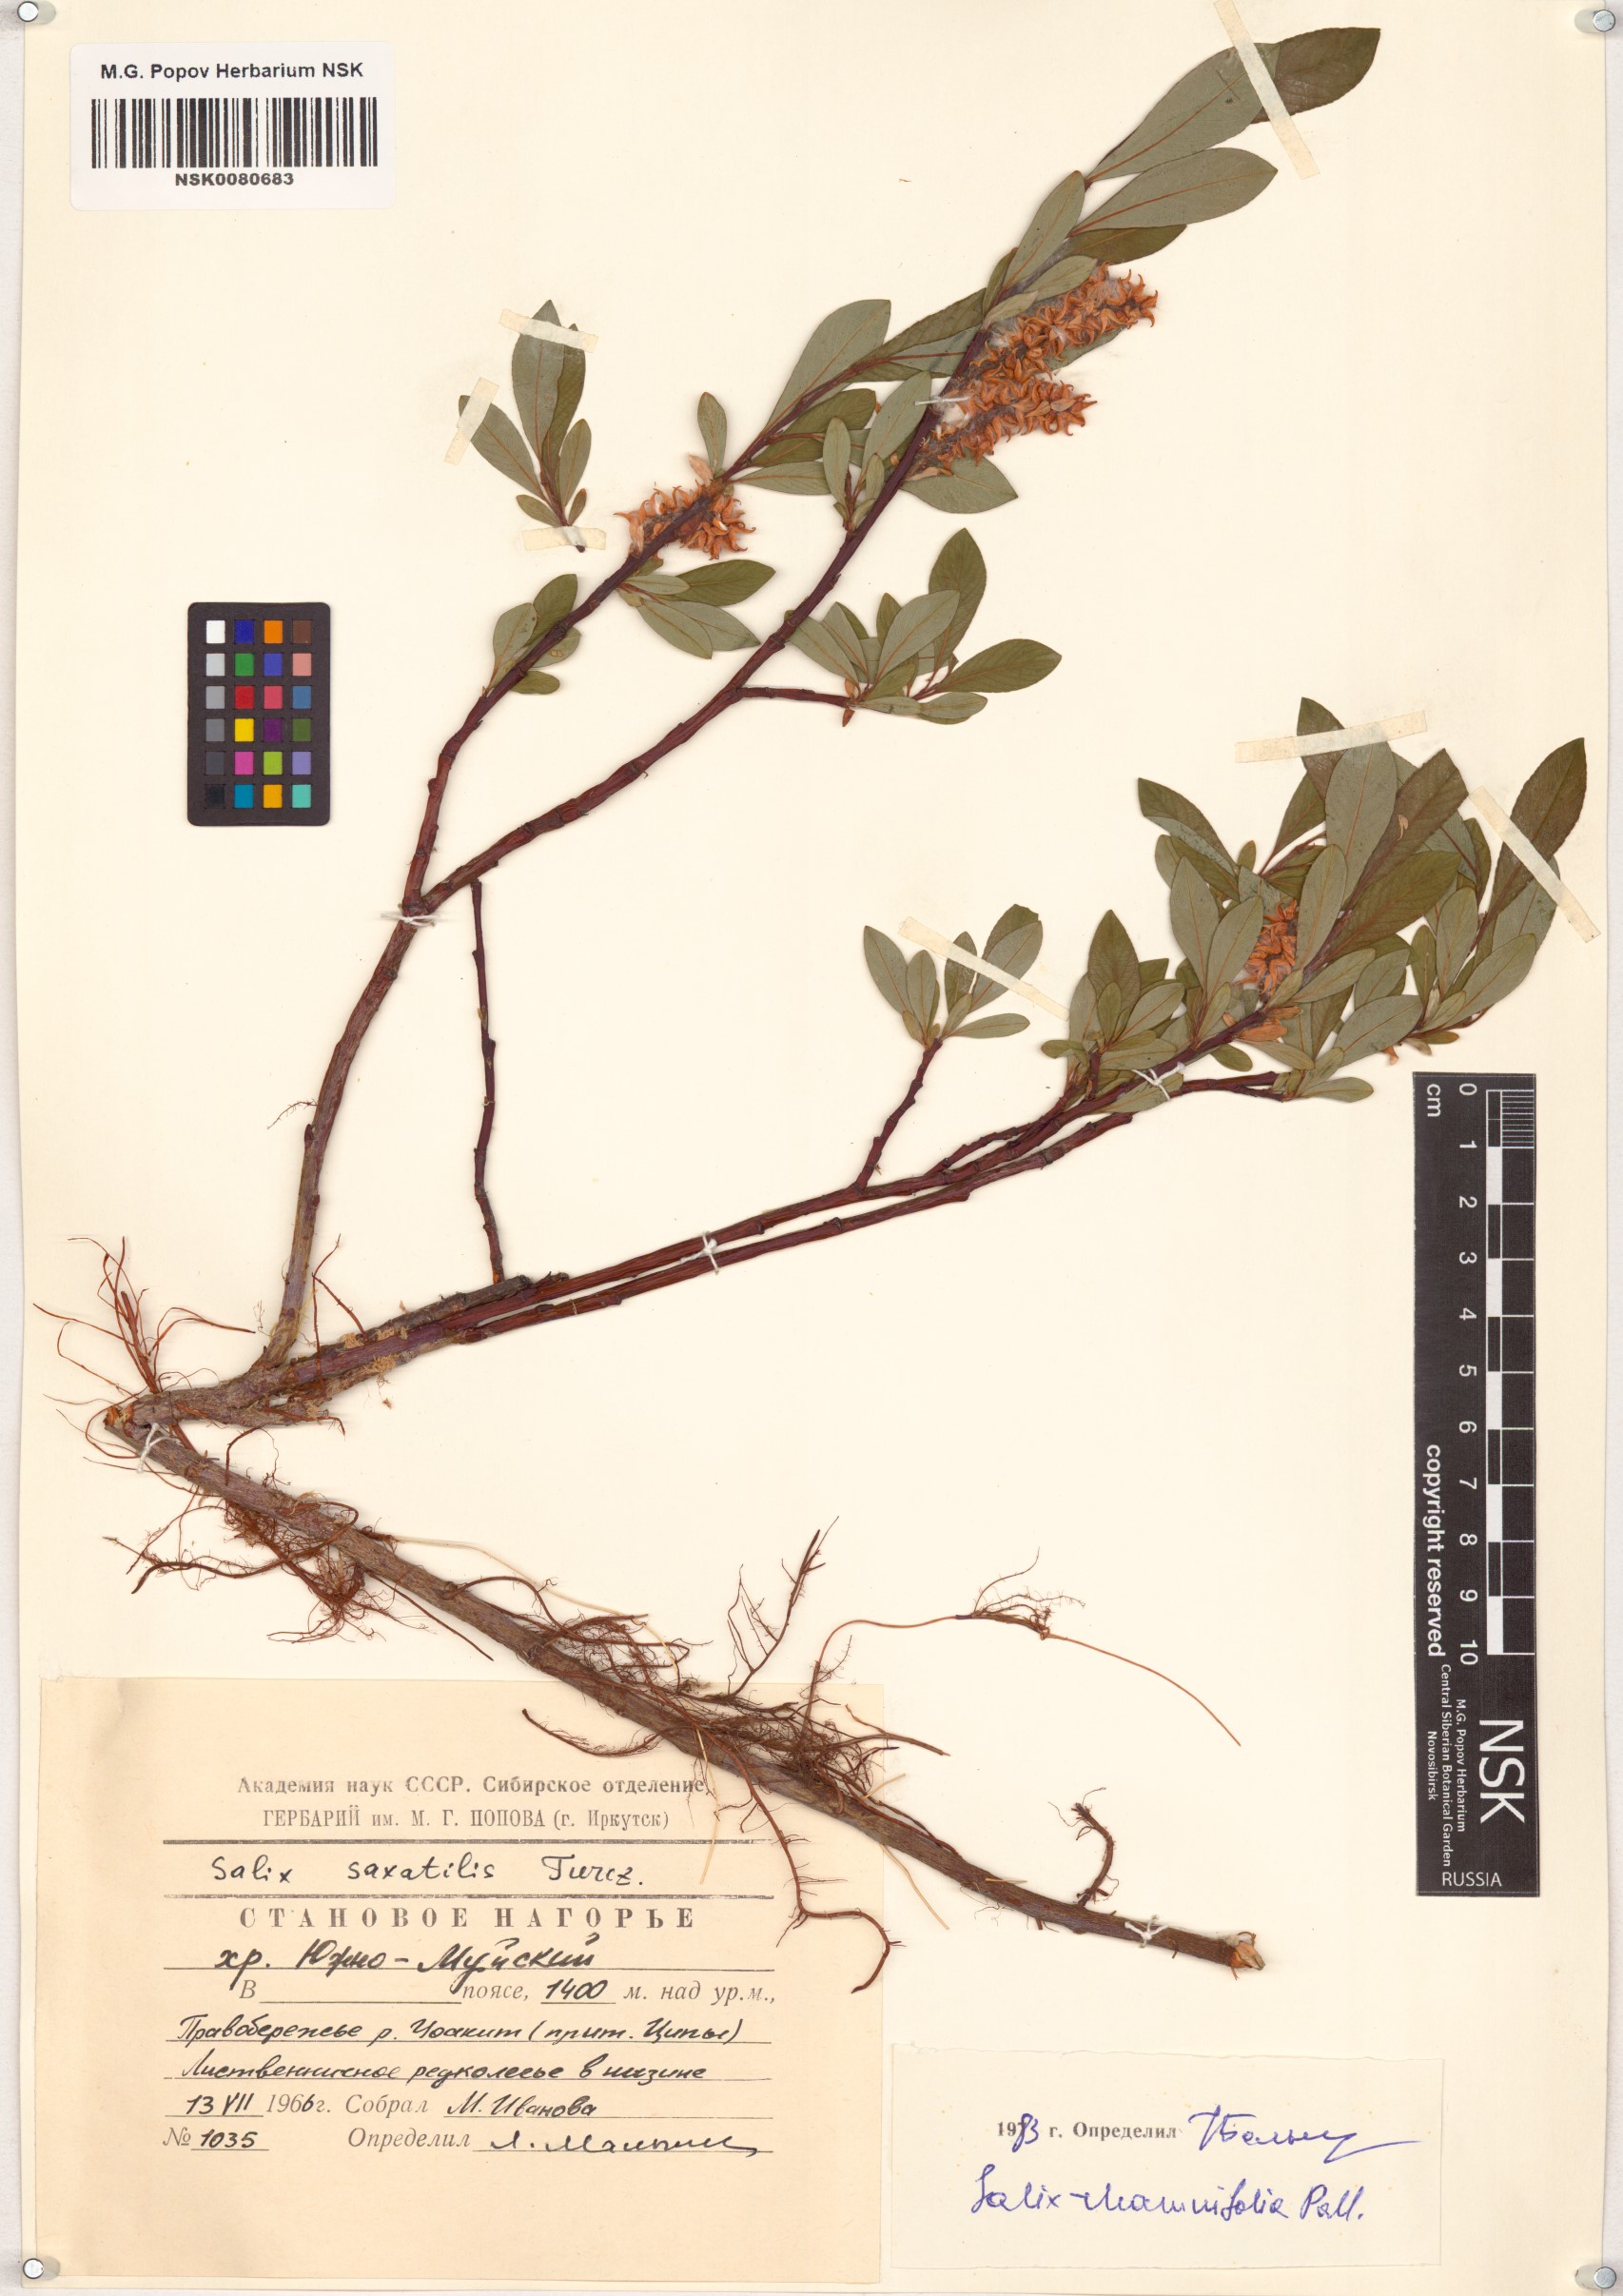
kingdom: Plantae
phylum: Tracheophyta
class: Magnoliopsida
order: Malpighiales
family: Salicaceae
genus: Salix
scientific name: Salix rhamnifolia
